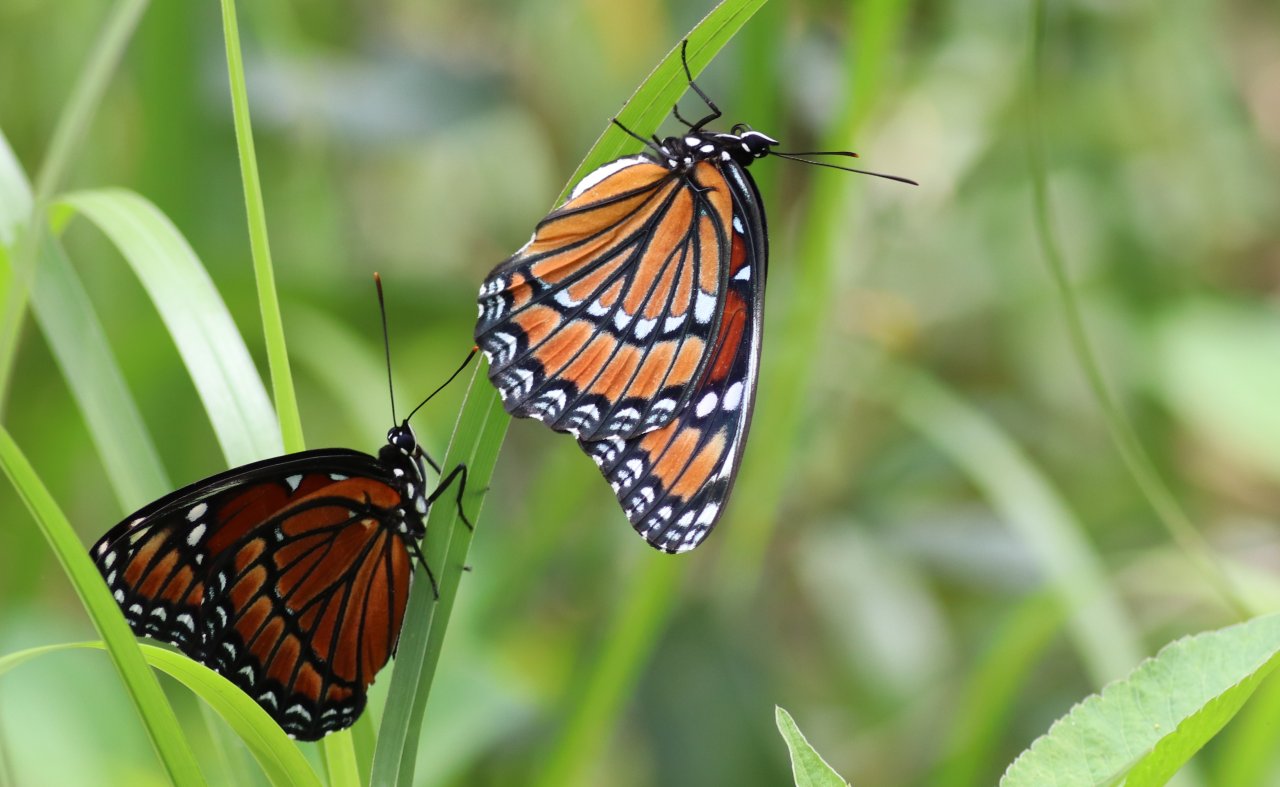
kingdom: Animalia
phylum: Arthropoda
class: Insecta
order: Lepidoptera
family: Nymphalidae
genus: Danaus
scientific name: Danaus plexippus
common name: Monarch
